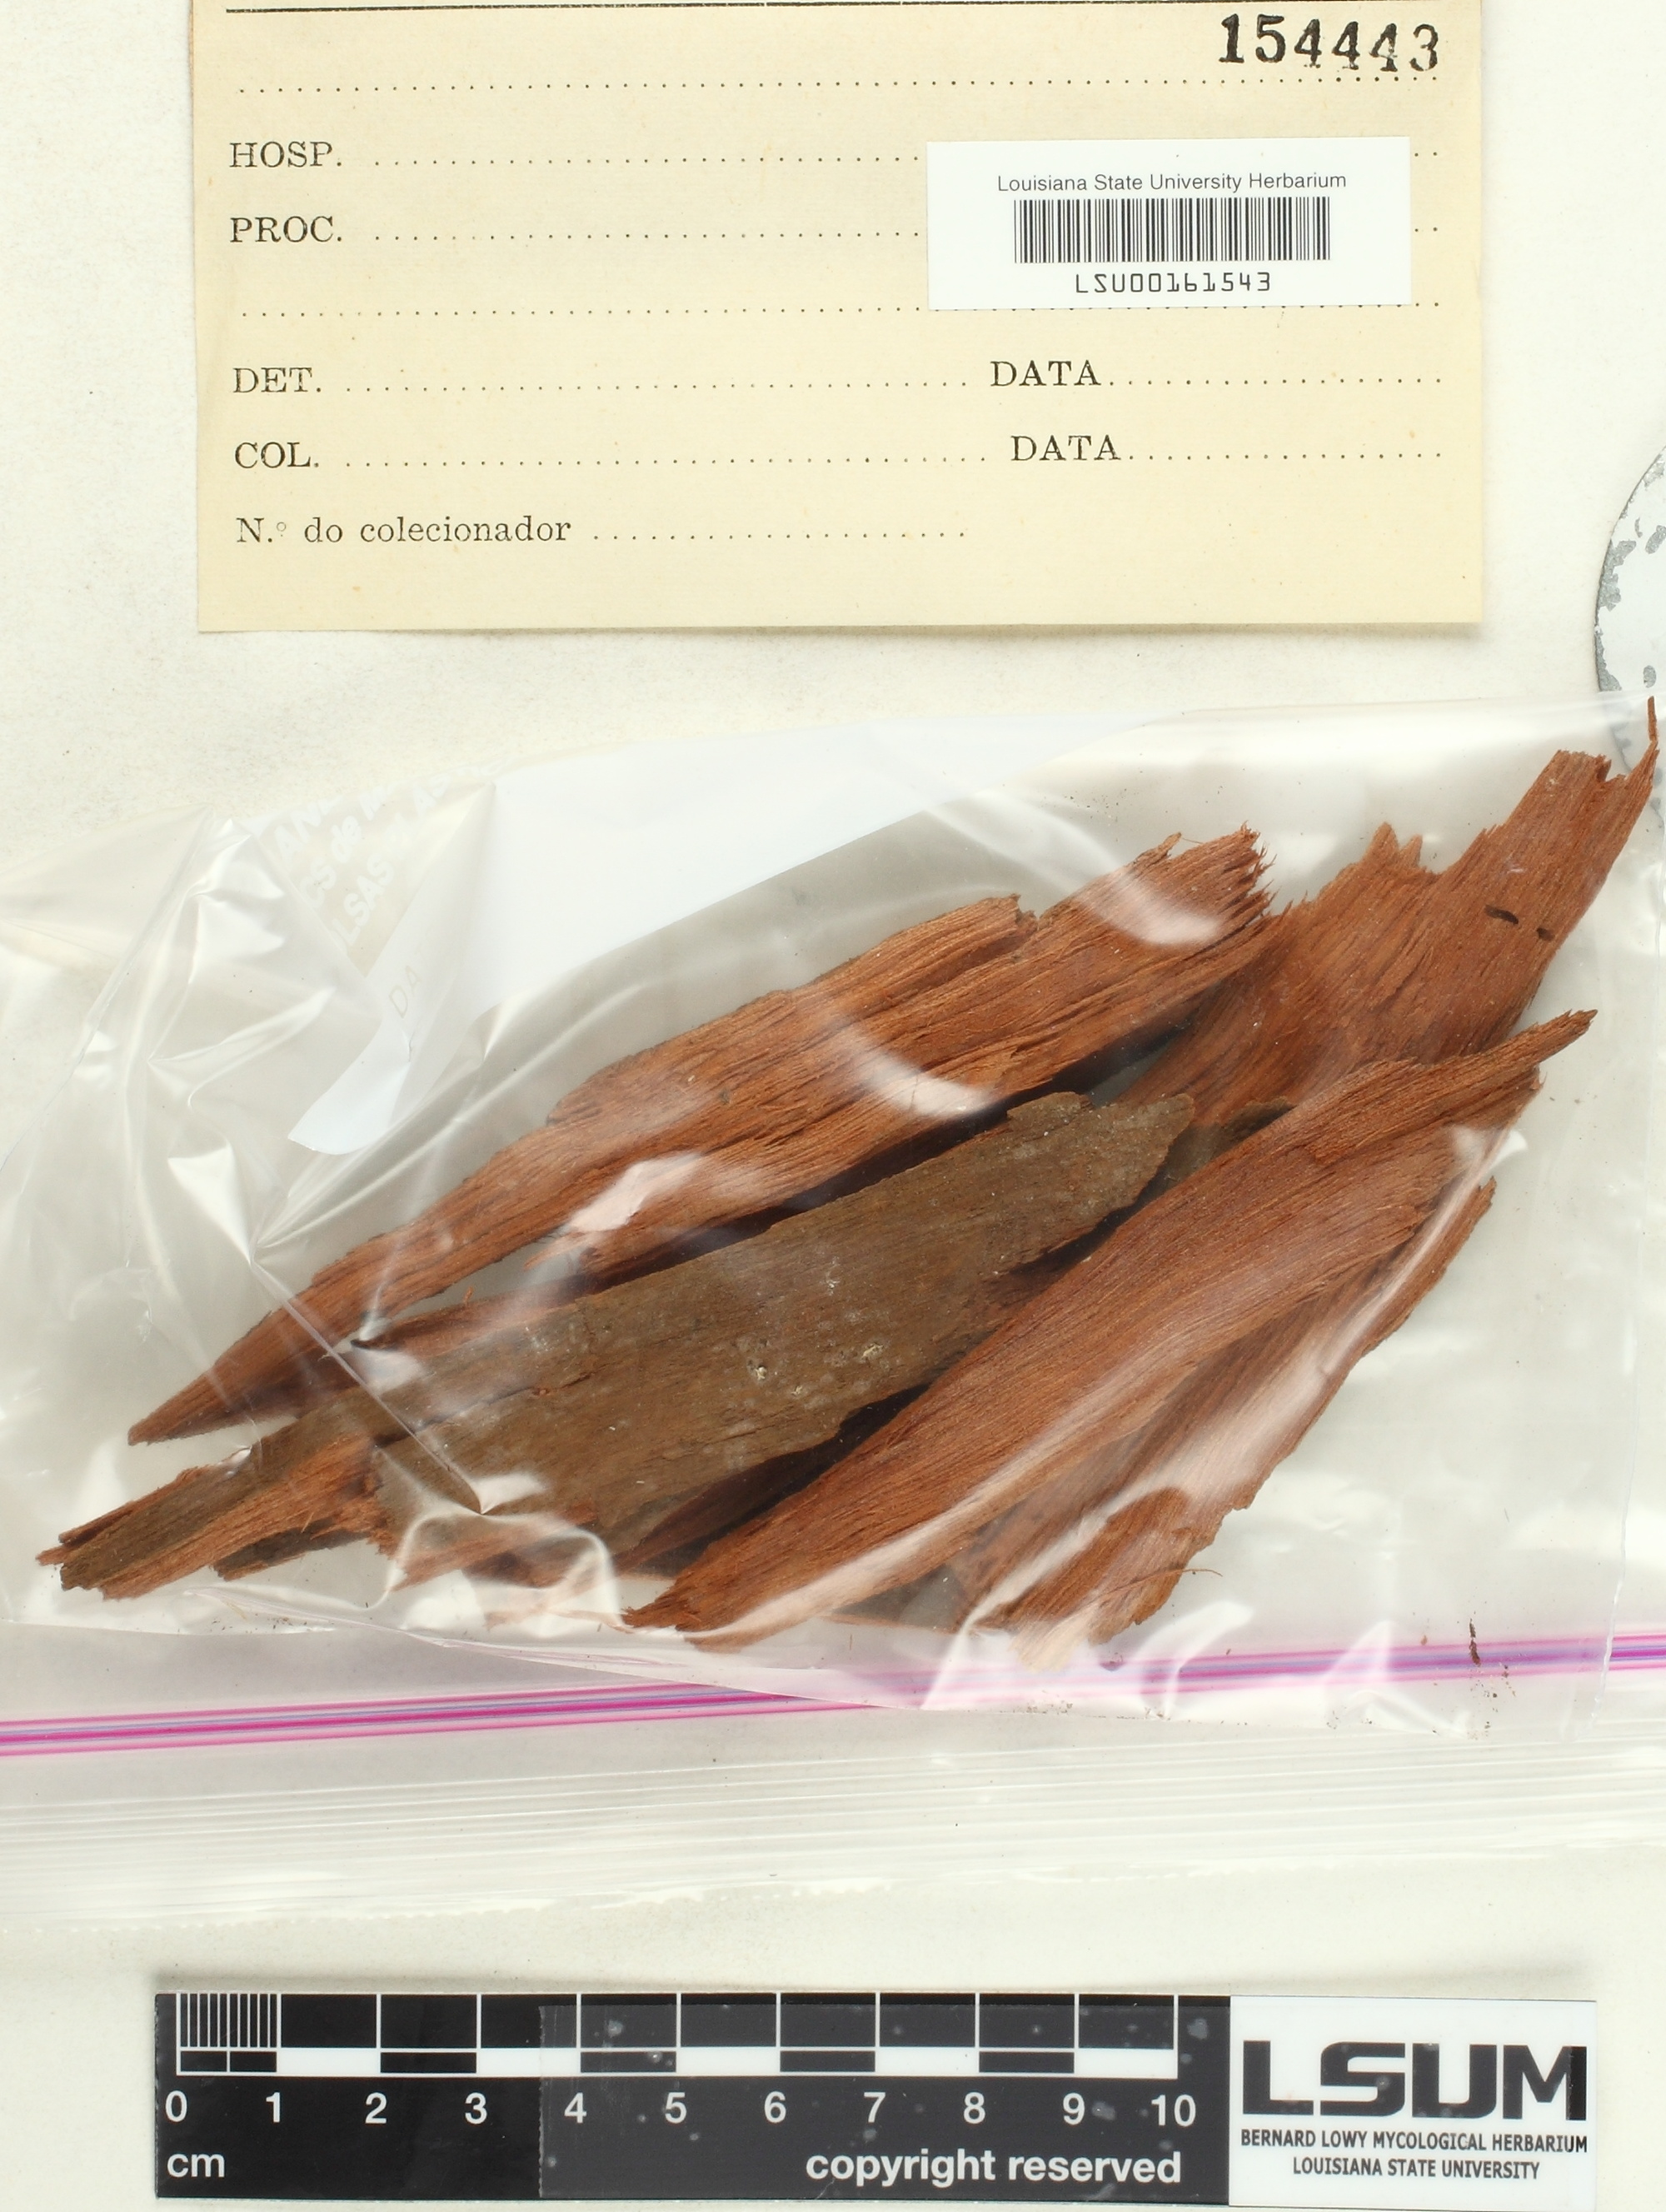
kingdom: Fungi
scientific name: Fungi
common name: Fungi
